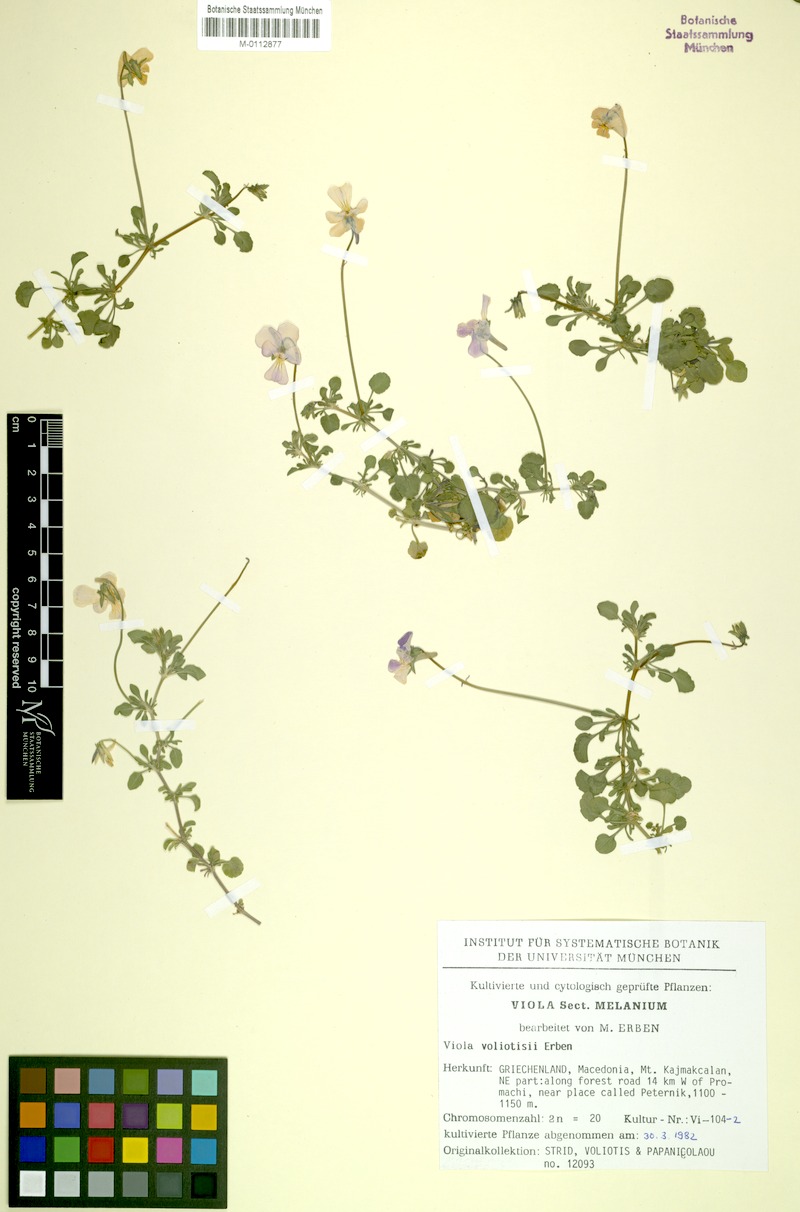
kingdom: Plantae
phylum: Tracheophyta
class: Magnoliopsida
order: Malpighiales
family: Violaceae
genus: Viola
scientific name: Viola voliotisii
